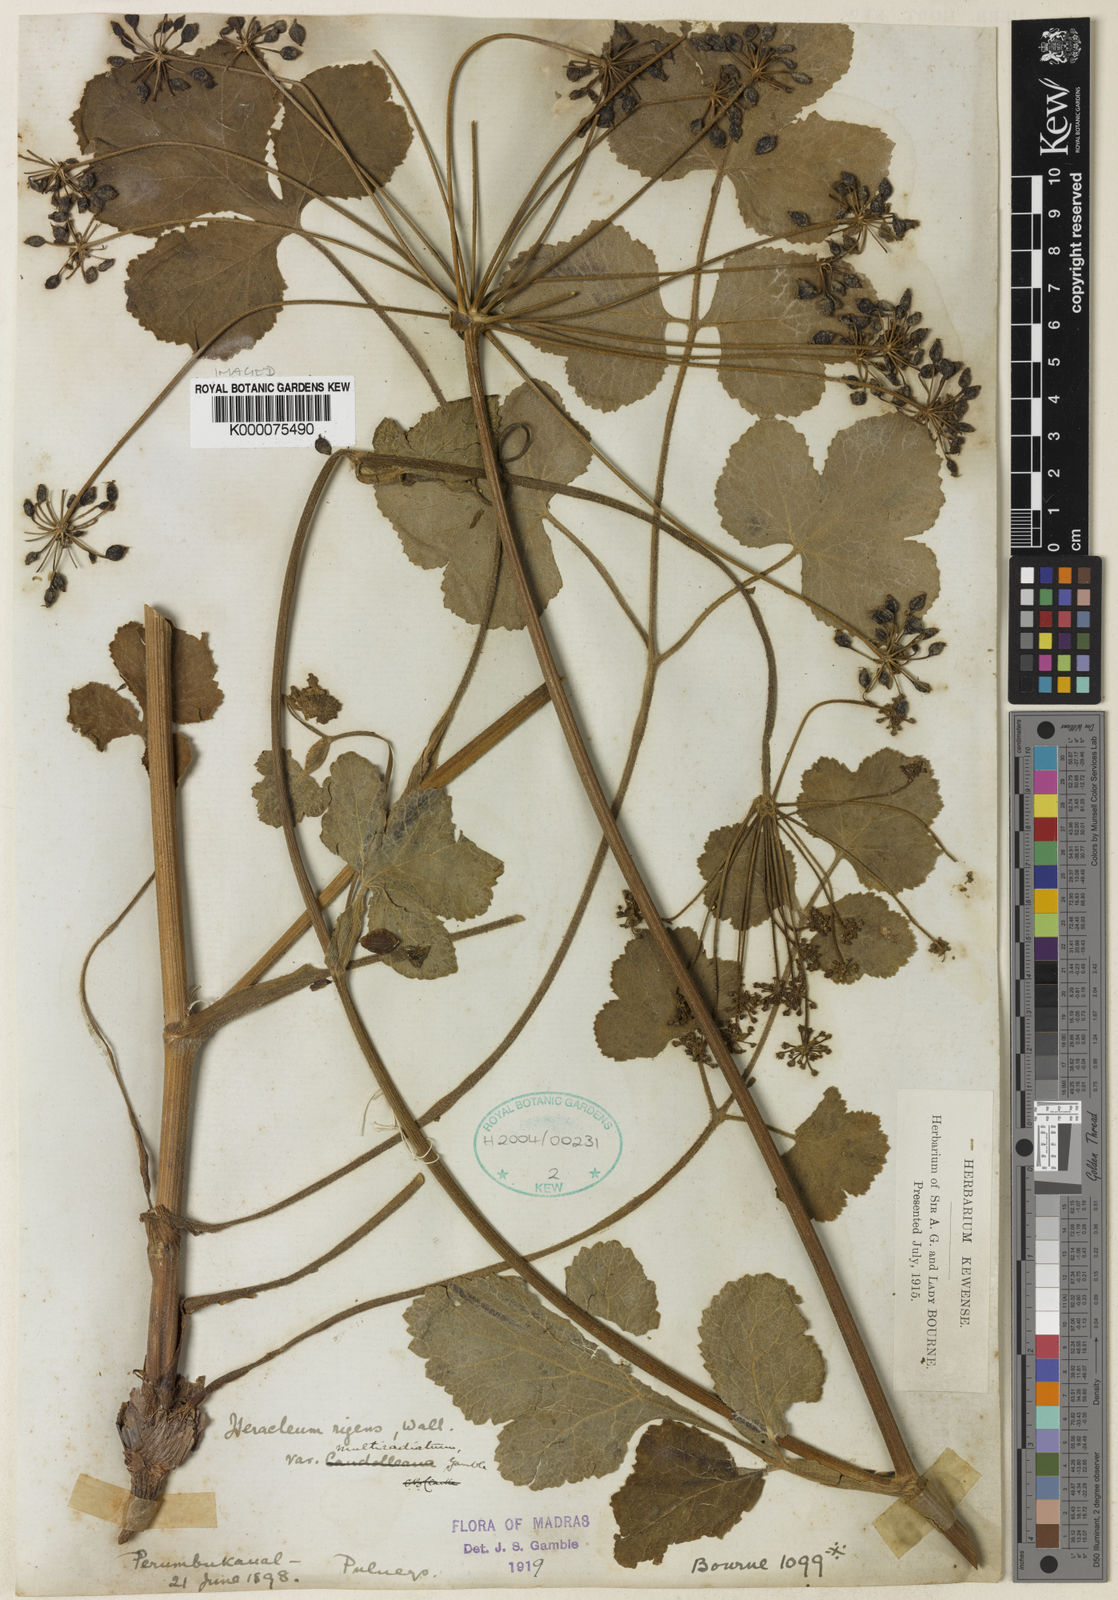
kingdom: Plantae
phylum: Tracheophyta
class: Magnoliopsida
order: Apiales
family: Apiaceae
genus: Heracleum
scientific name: Heracleum
